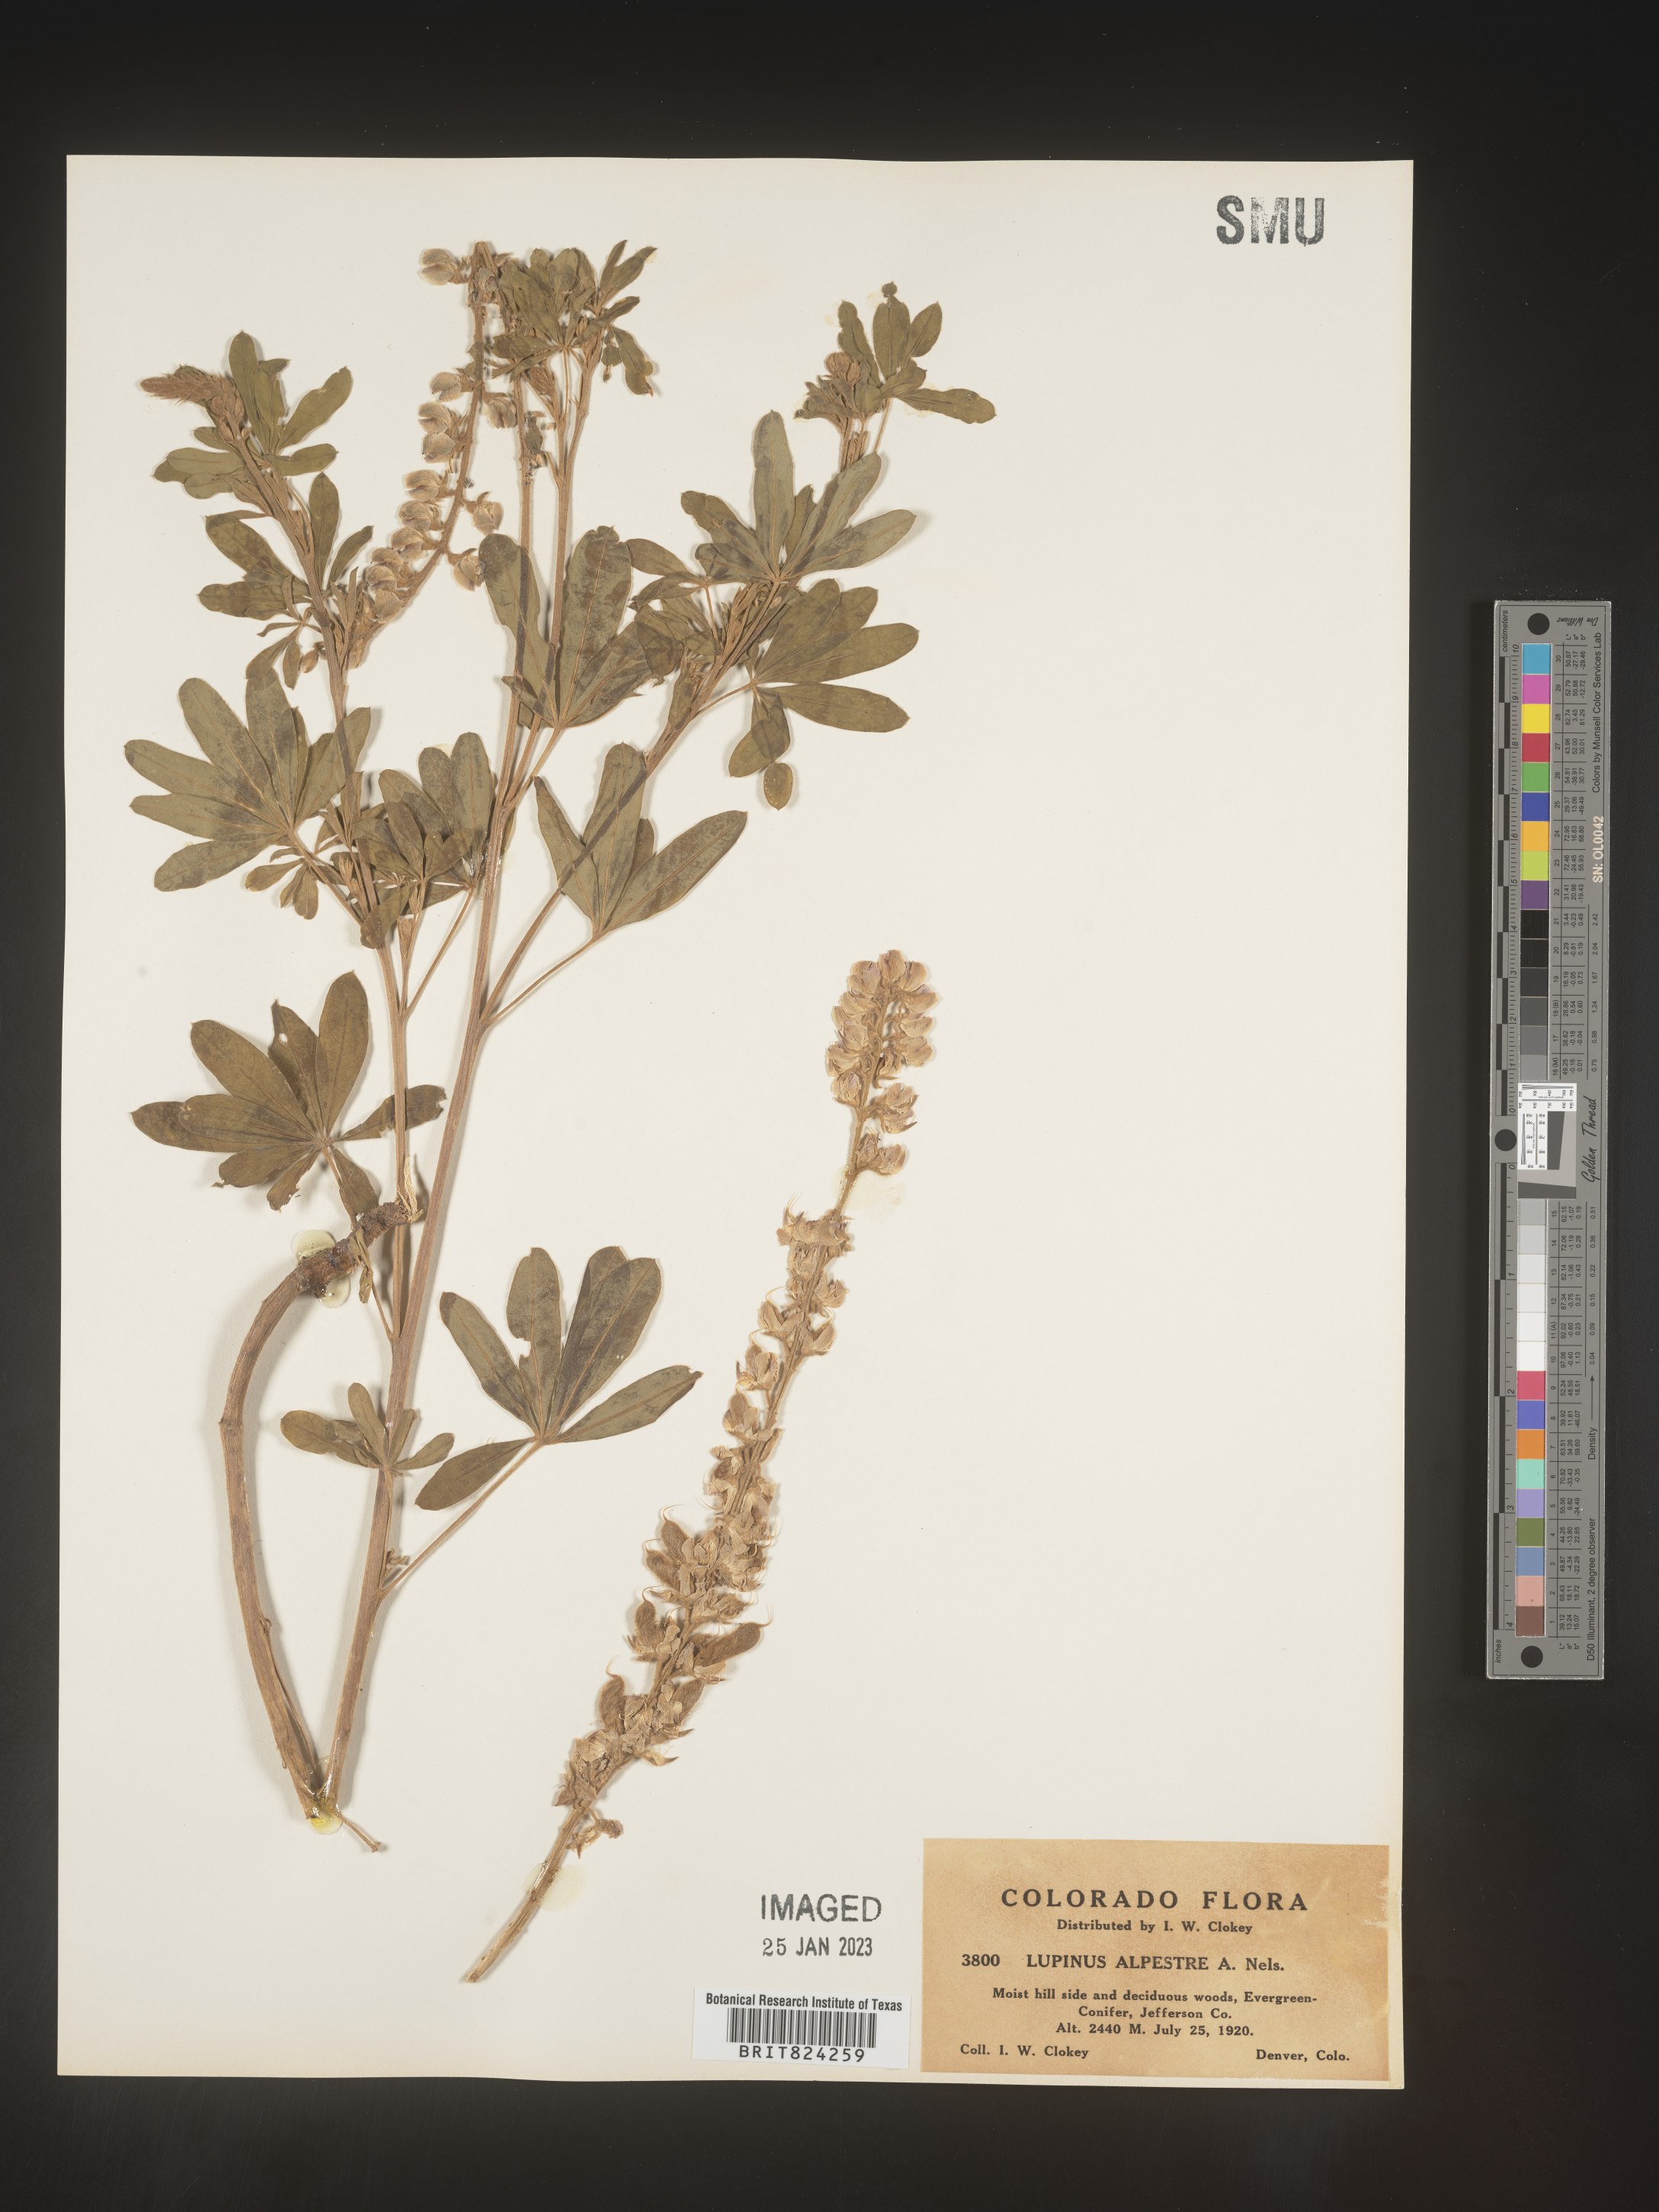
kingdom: Plantae
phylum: Tracheophyta
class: Magnoliopsida
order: Fabales
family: Fabaceae
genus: Lupinus
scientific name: Lupinus
